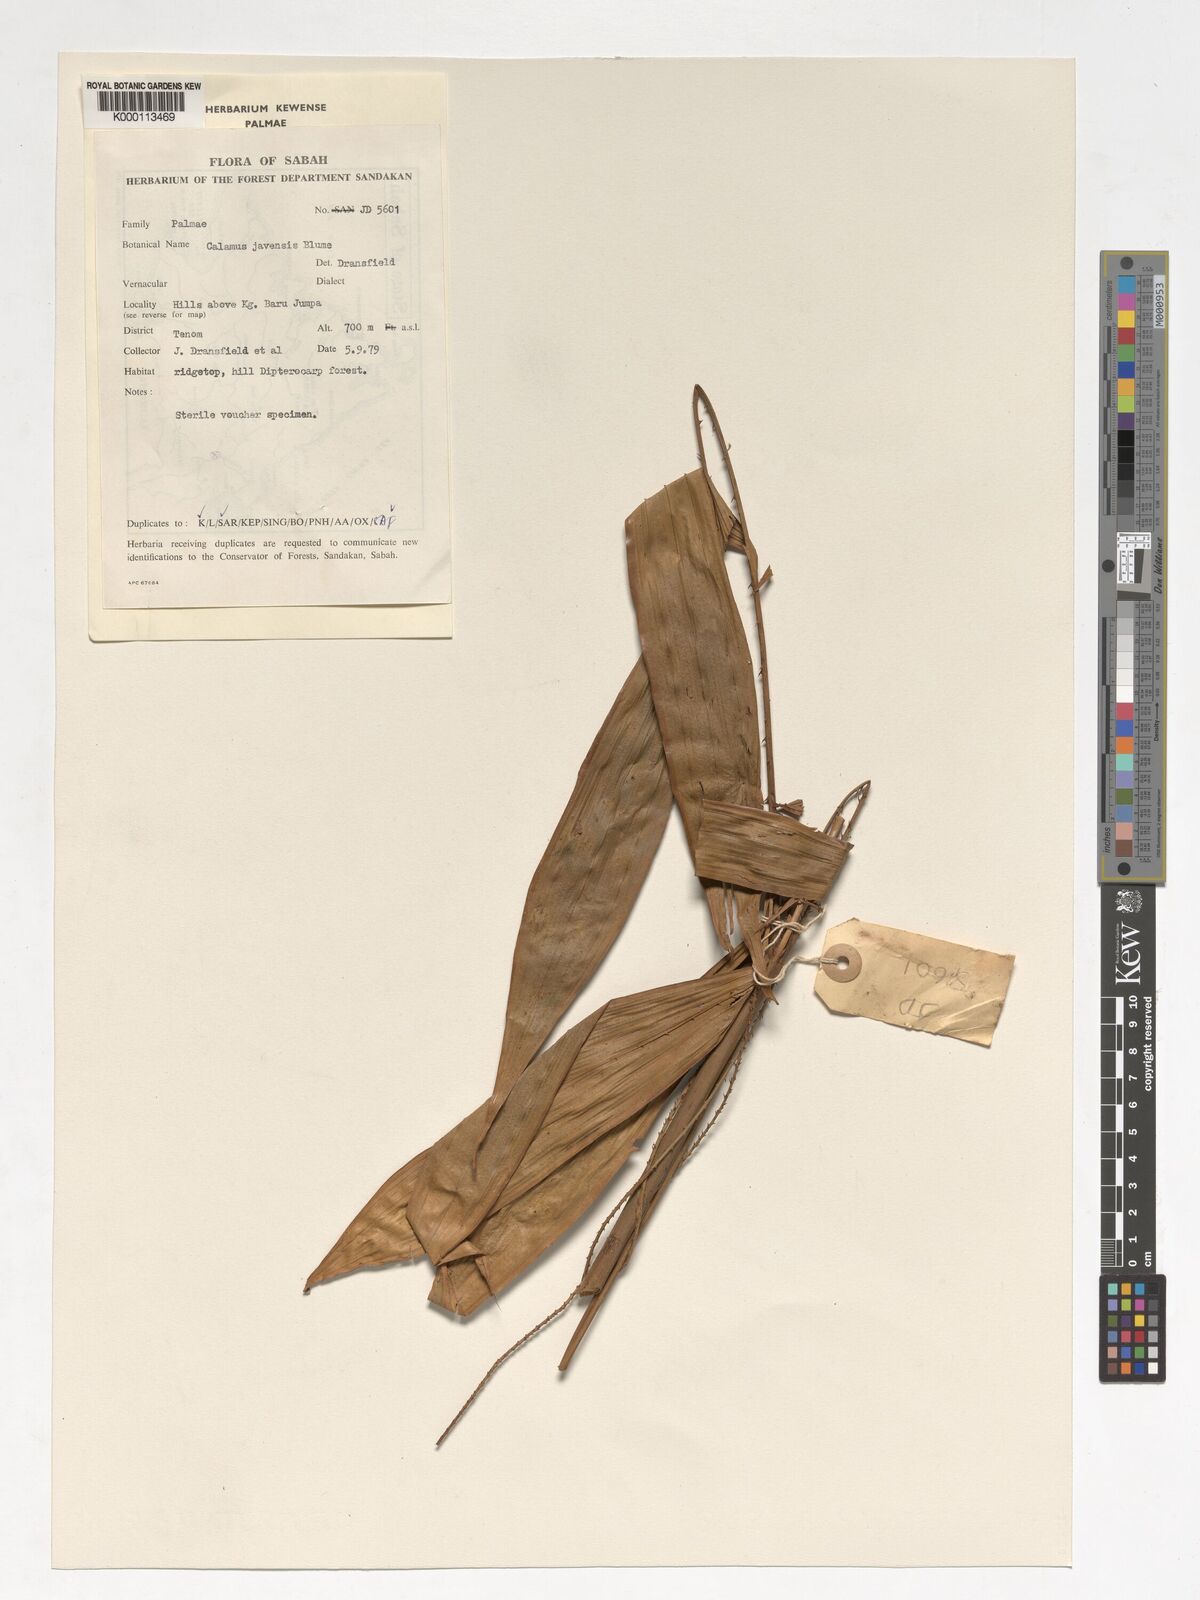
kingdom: Plantae
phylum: Tracheophyta
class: Liliopsida
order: Arecales
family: Arecaceae
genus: Calamus
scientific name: Calamus javensis
